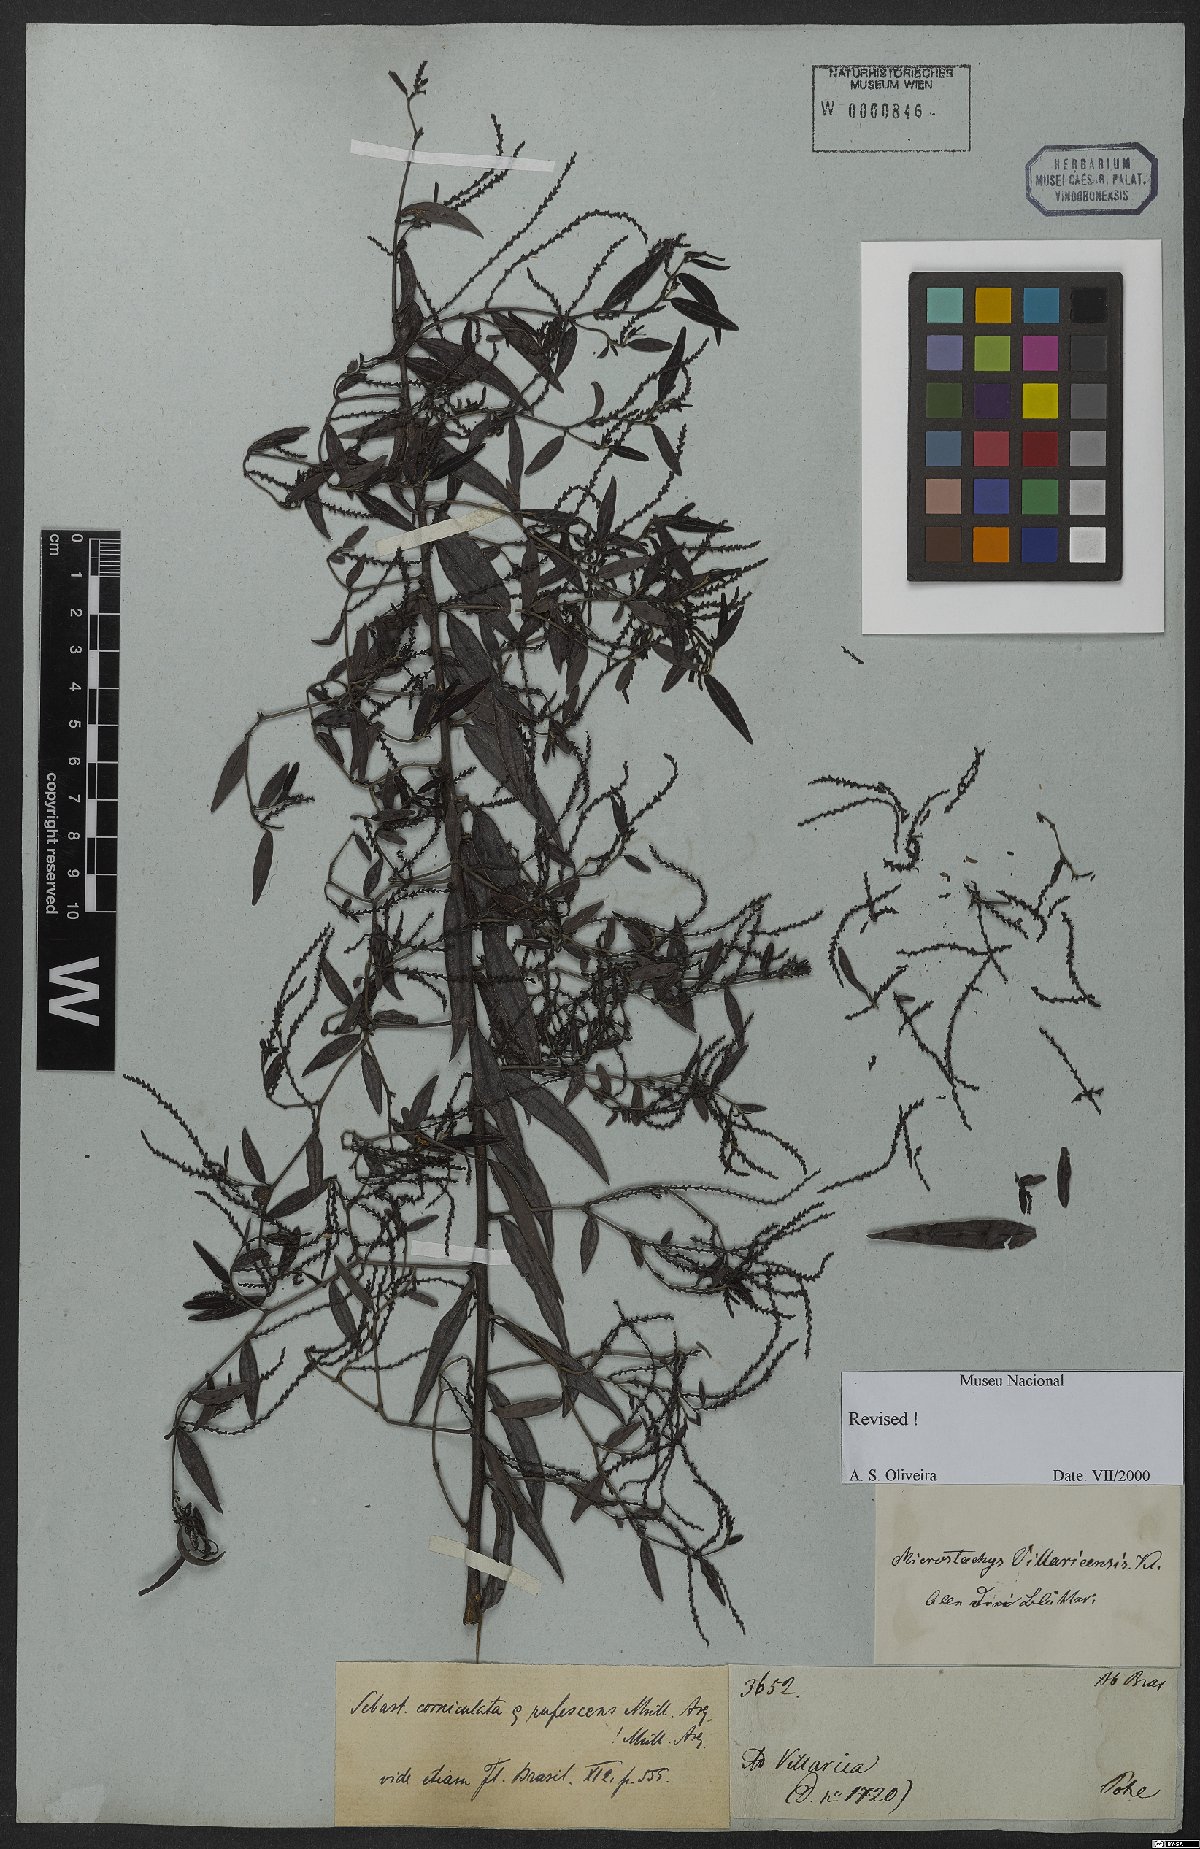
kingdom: Plantae
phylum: Tracheophyta
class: Magnoliopsida
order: Malpighiales
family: Euphorbiaceae
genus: Microstachys
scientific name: Microstachys hispida
